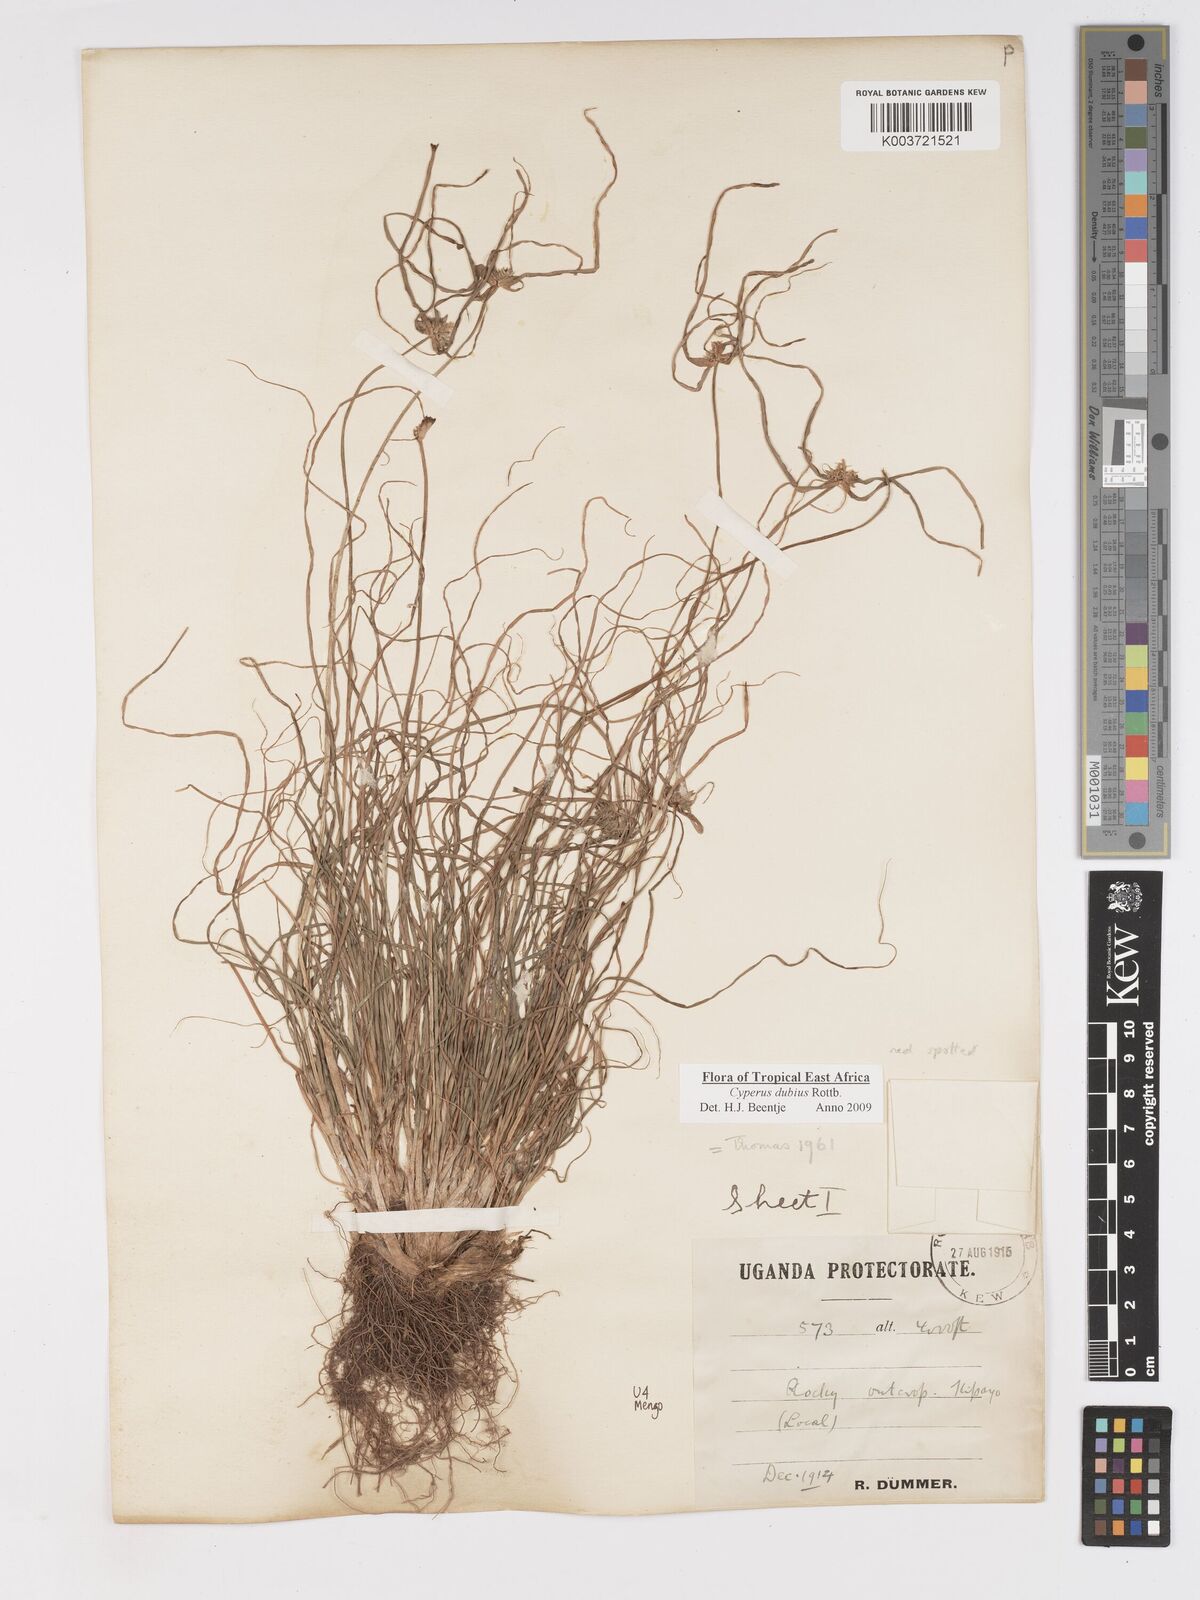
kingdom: Plantae
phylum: Tracheophyta
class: Liliopsida
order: Poales
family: Cyperaceae
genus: Cyperus
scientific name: Cyperus dubius
